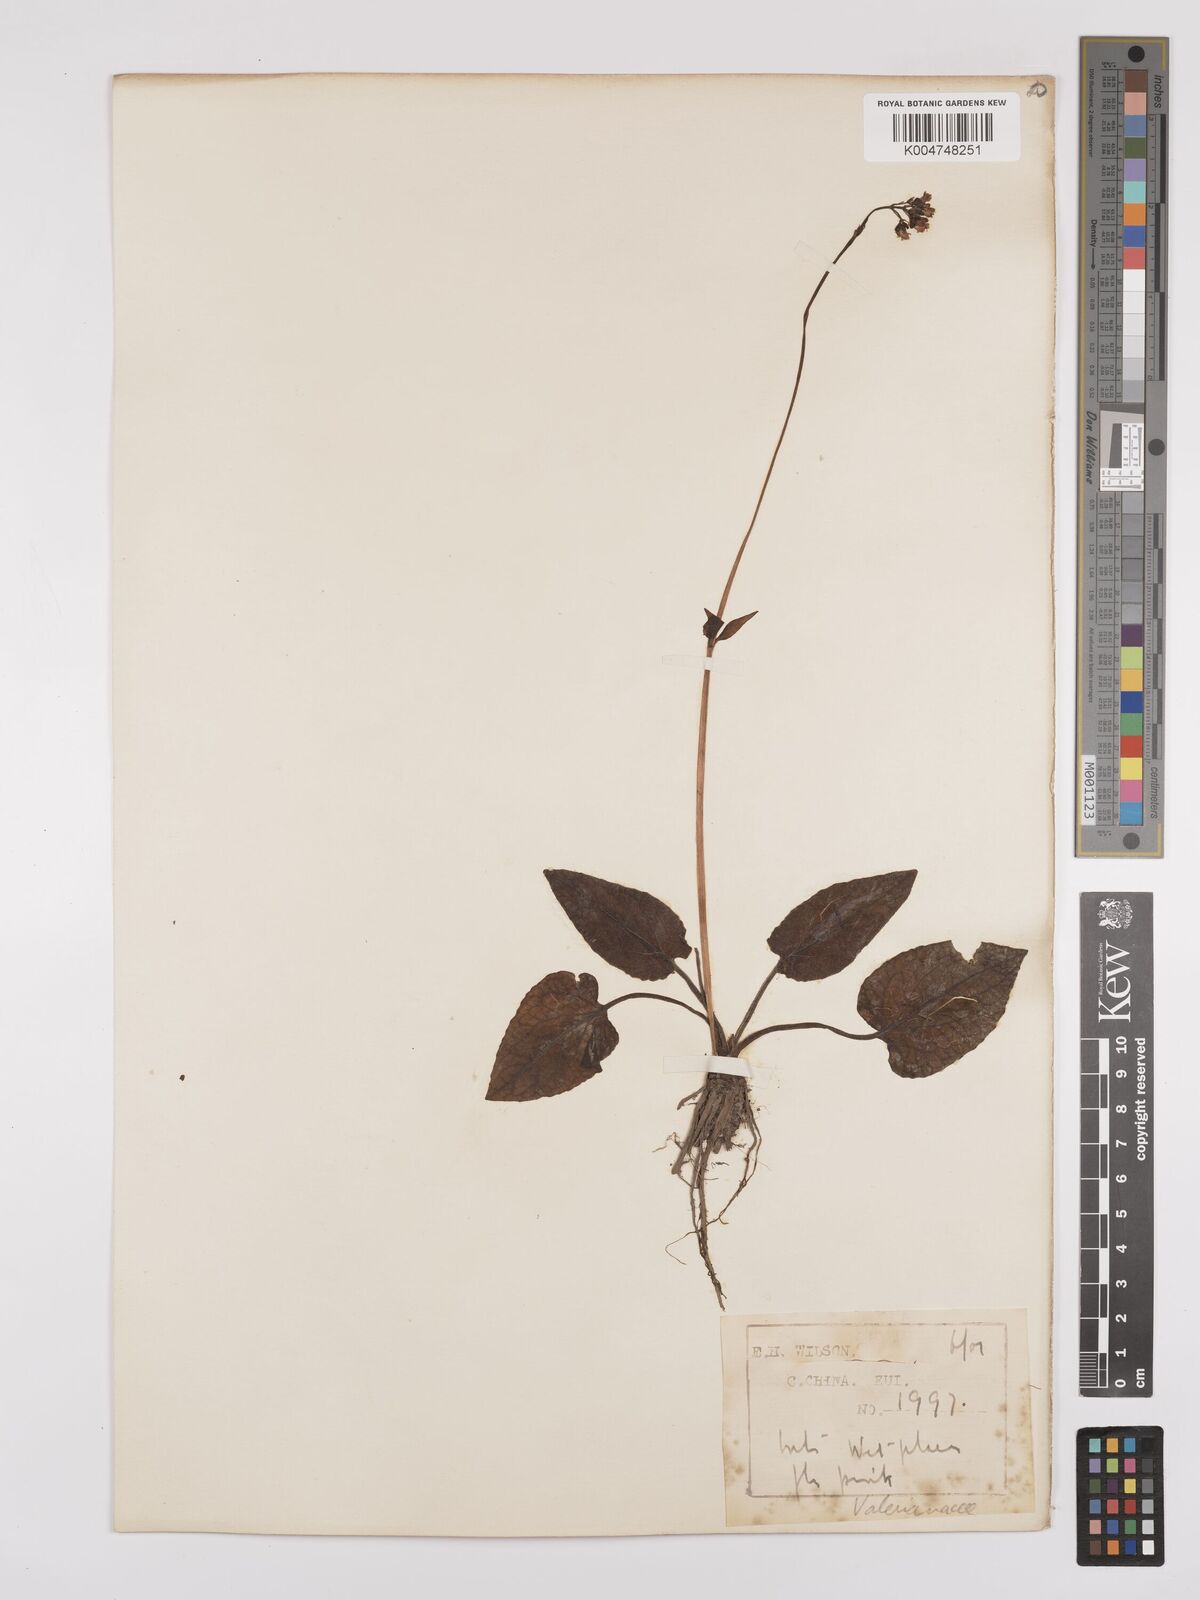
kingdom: Plantae
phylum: Tracheophyta
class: Magnoliopsida
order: Dipsacales
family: Caprifoliaceae
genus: Valeriana
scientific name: Valeriana
